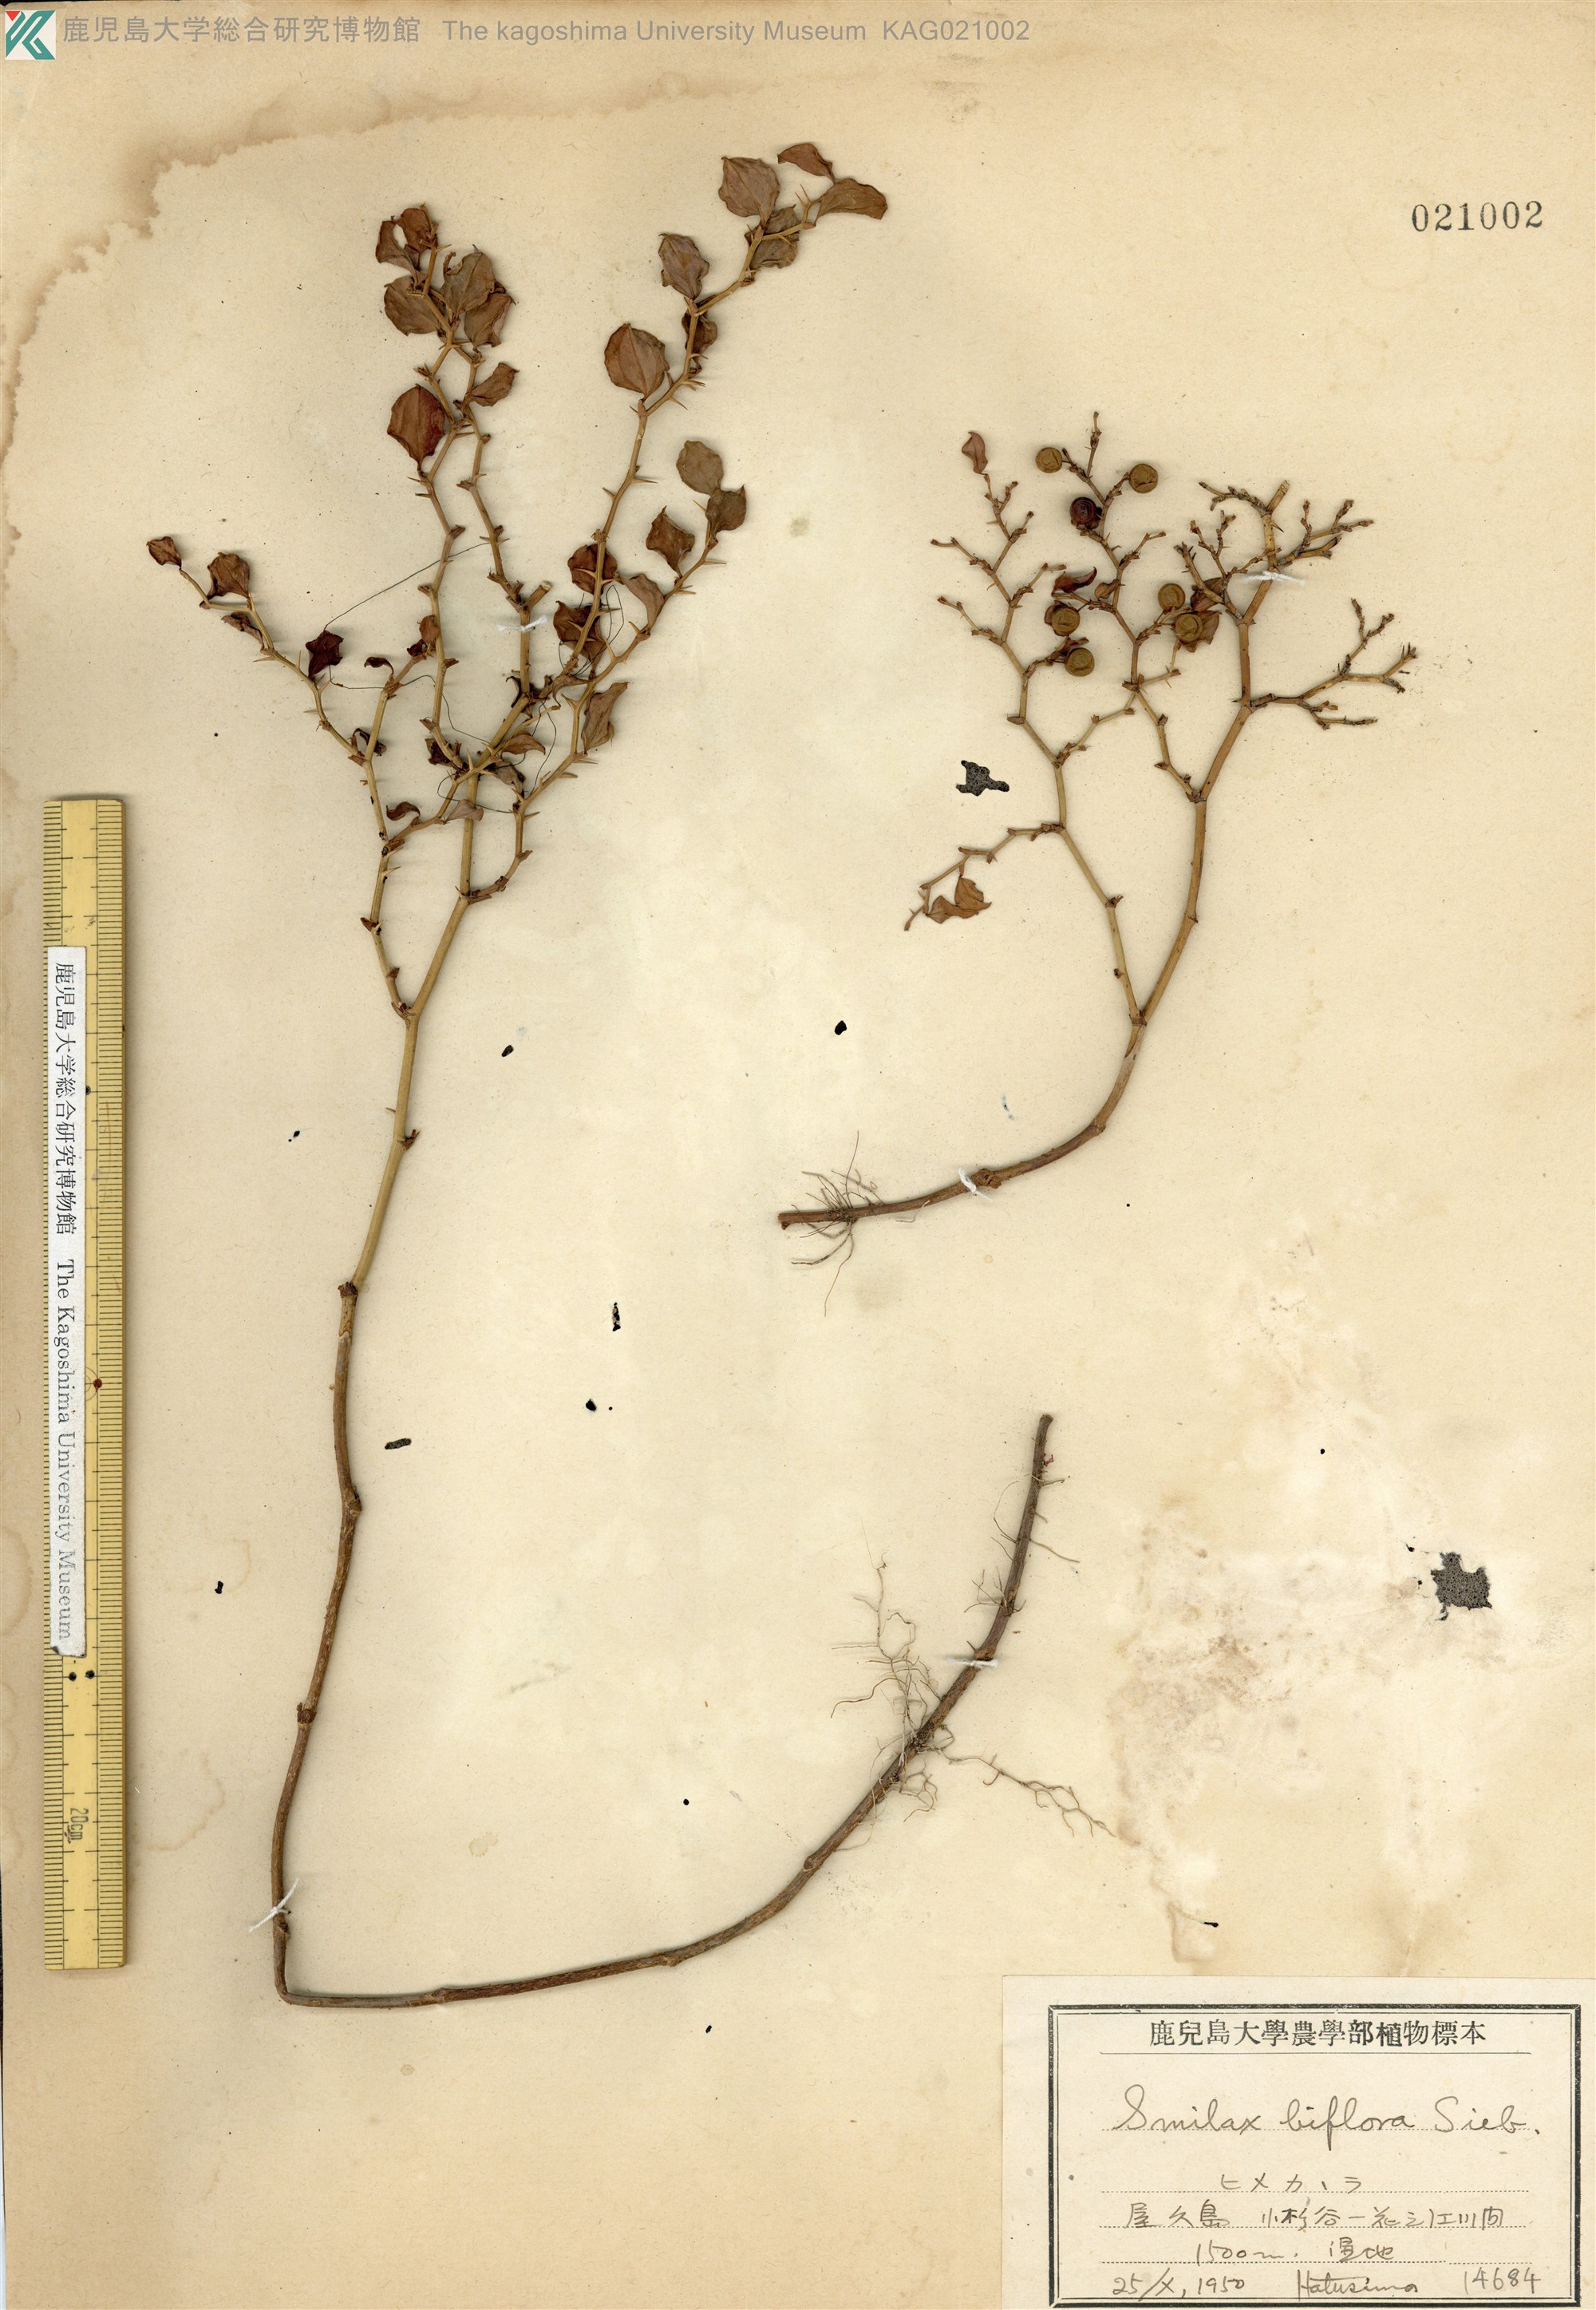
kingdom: Plantae
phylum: Tracheophyta
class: Liliopsida
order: Liliales
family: Smilacaceae
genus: Smilax
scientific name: Smilax biflora
